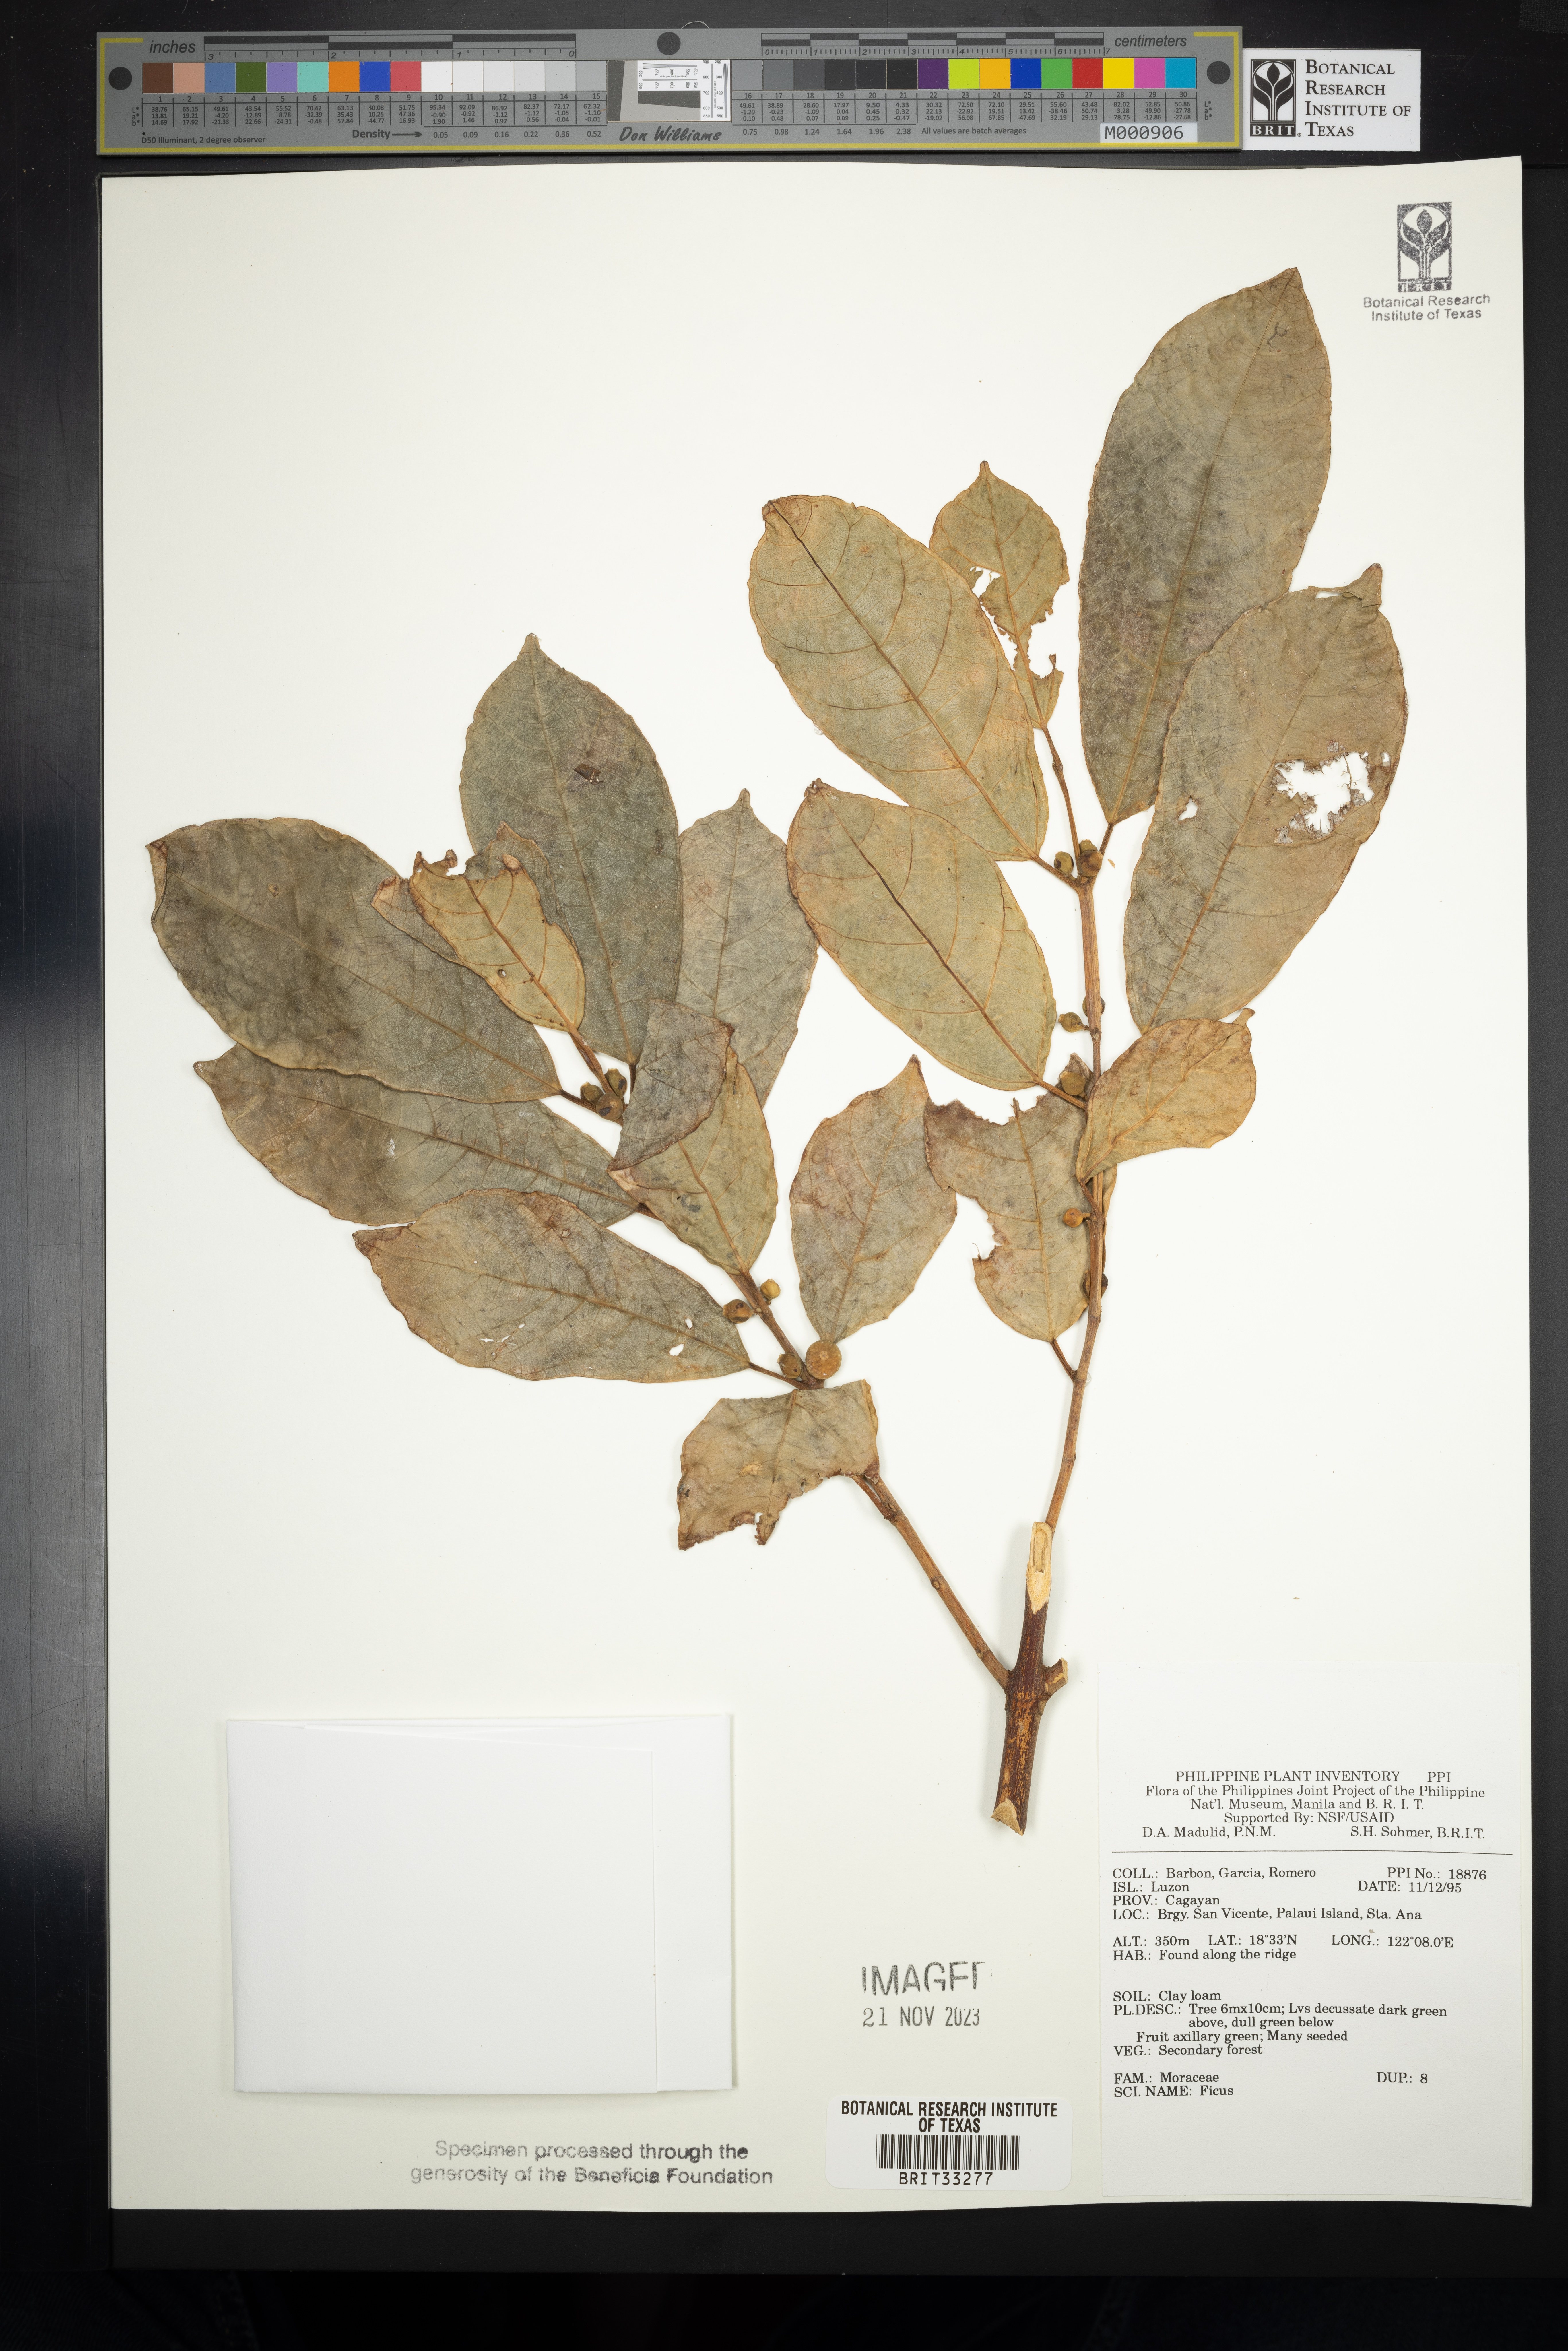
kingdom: Plantae
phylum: Tracheophyta
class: Magnoliopsida
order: Rosales
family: Moraceae
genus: Ficus
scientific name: Ficus
